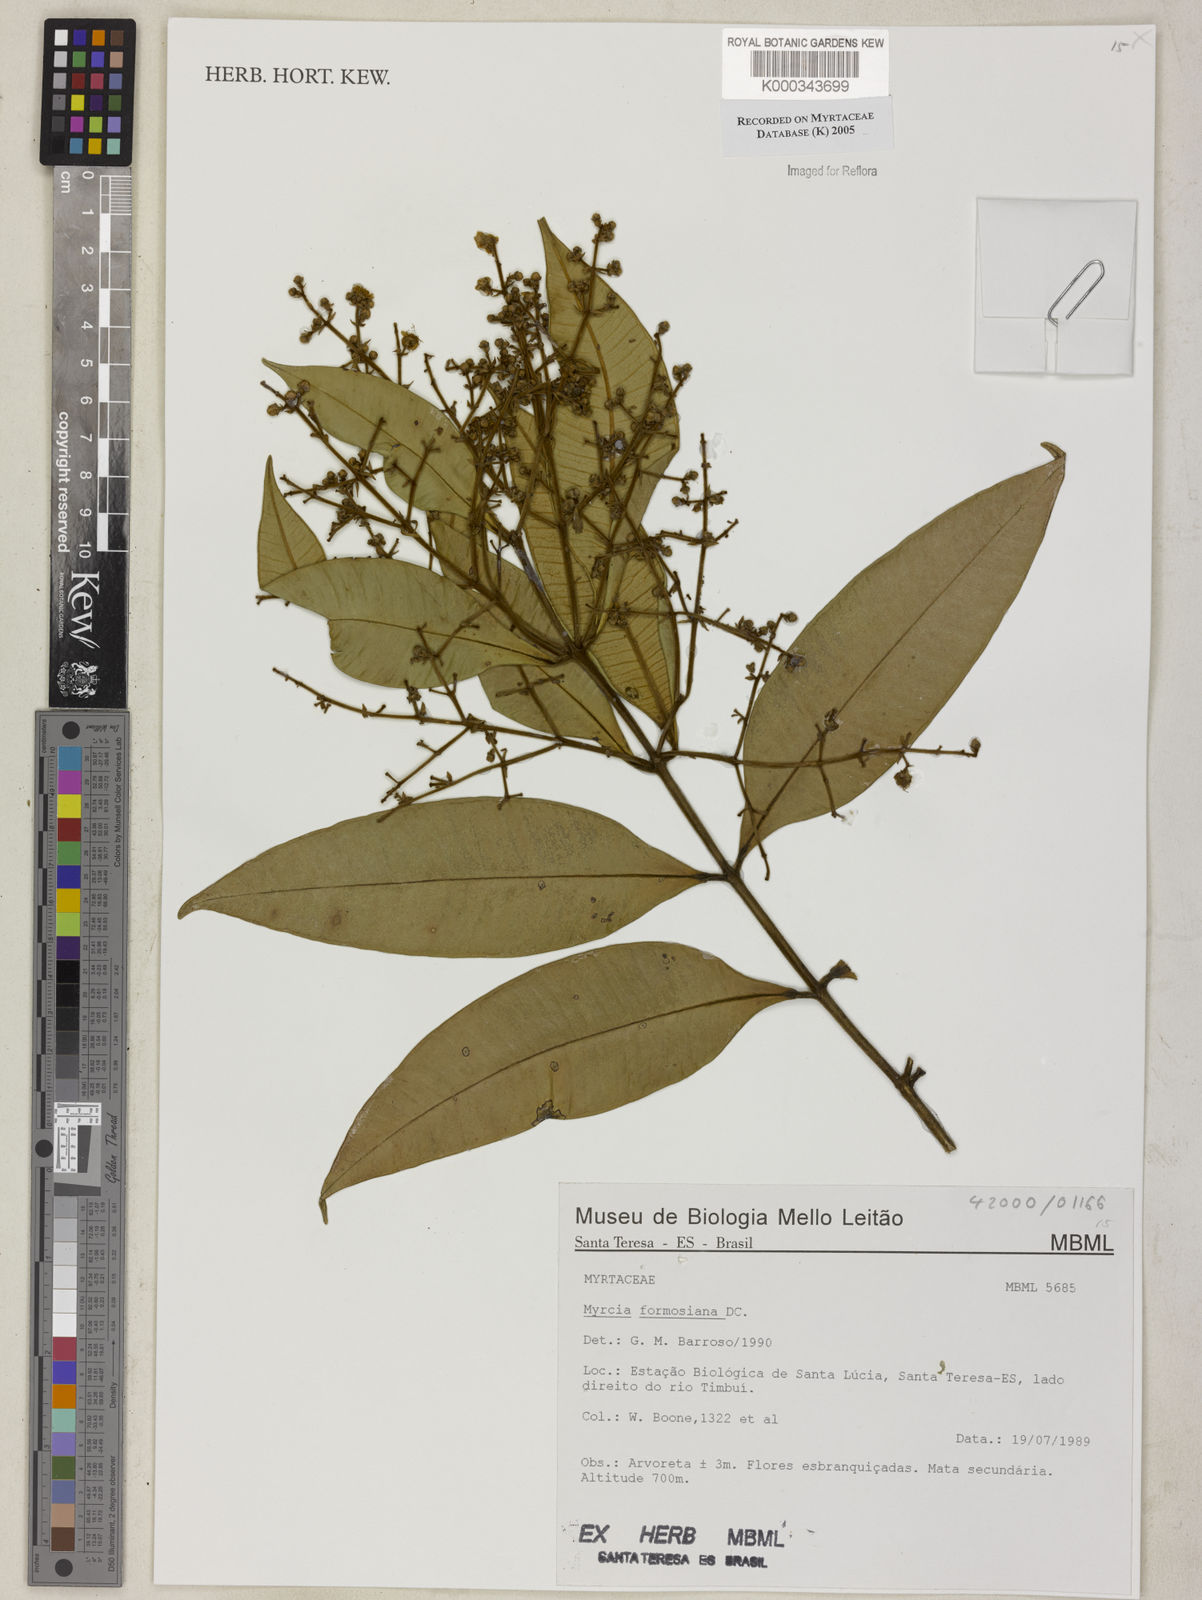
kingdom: Plantae
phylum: Tracheophyta
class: Magnoliopsida
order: Myrtales
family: Myrtaceae
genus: Myrcia
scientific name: Myrcia splendens
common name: Surinam cherry
